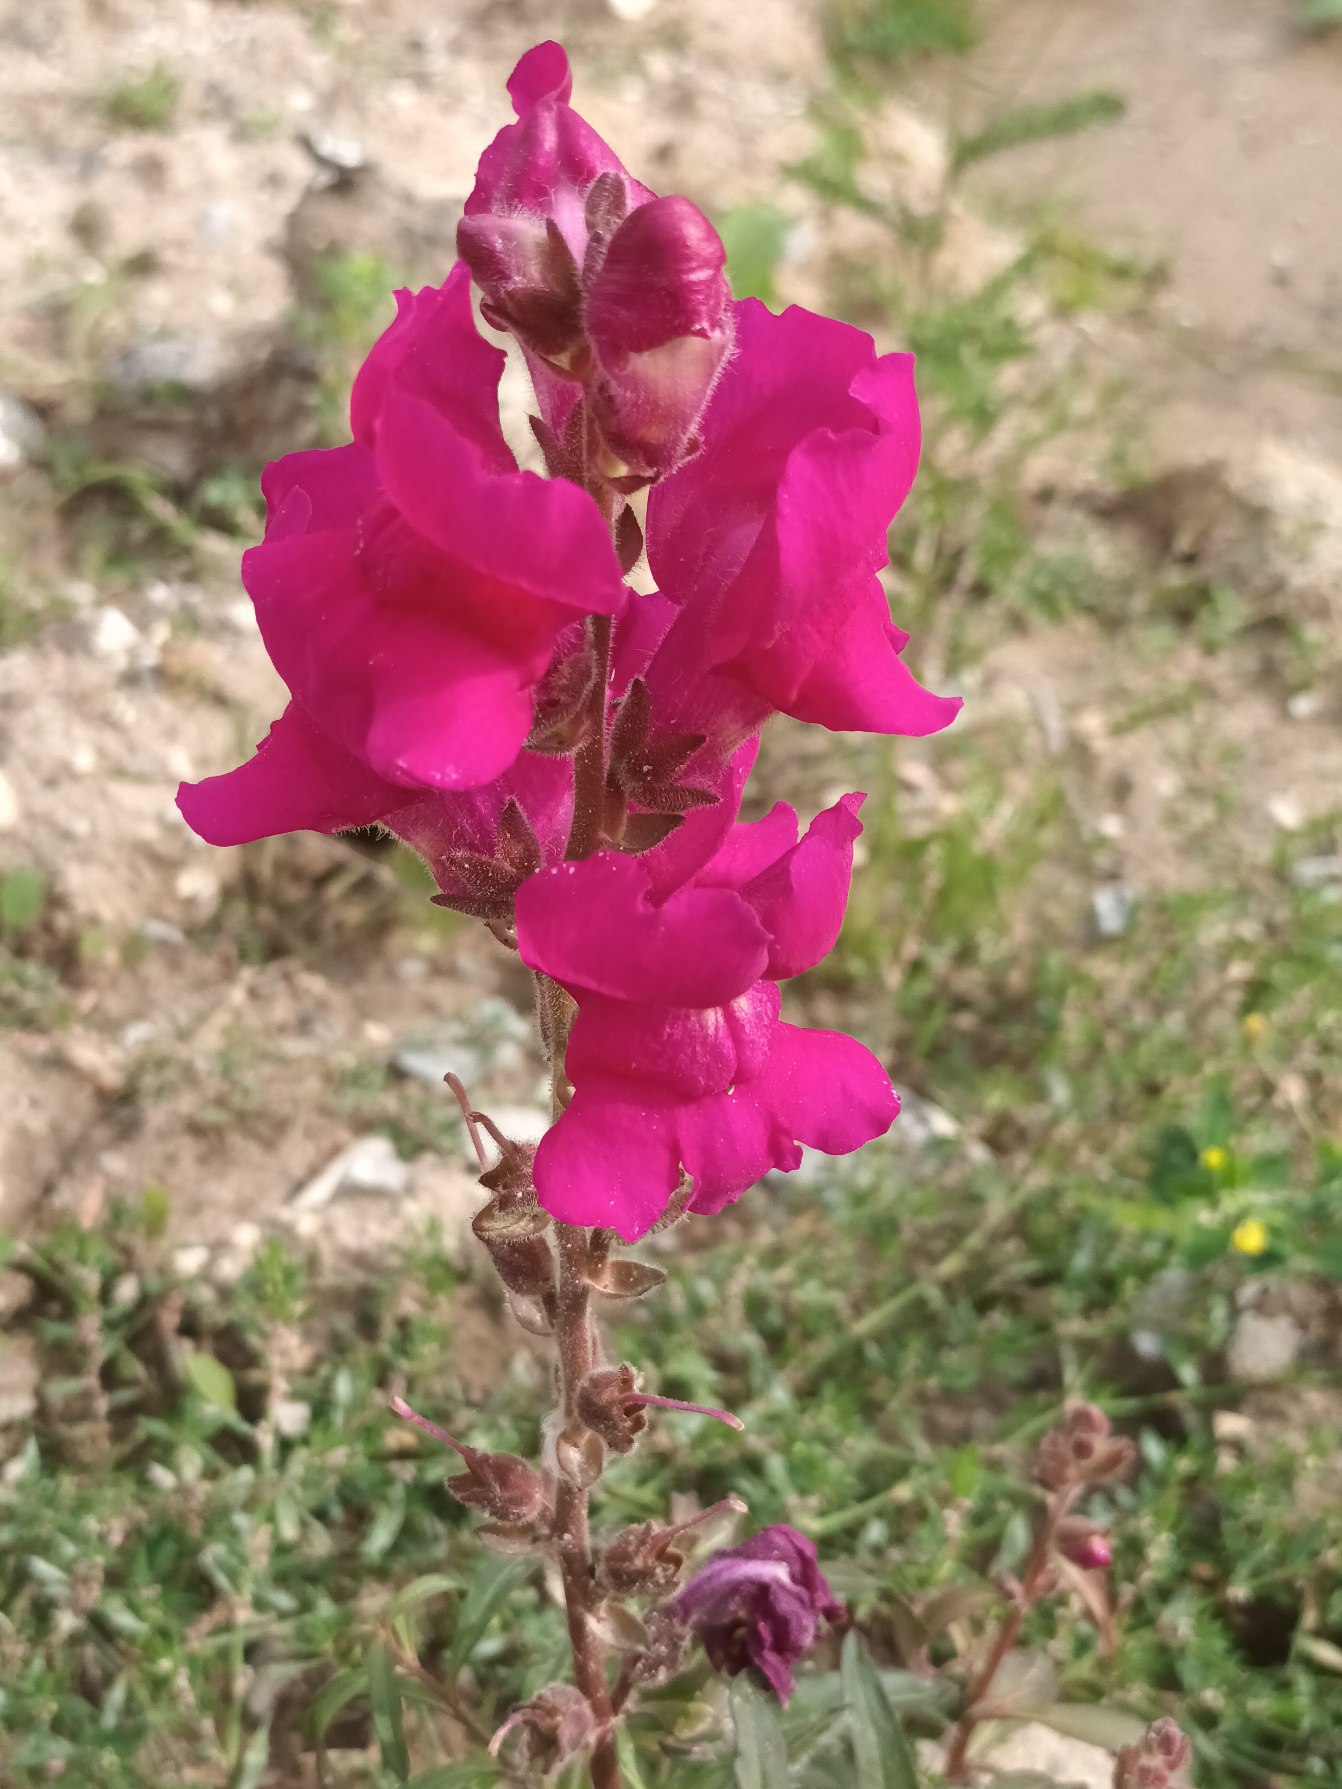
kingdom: Plantae
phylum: Tracheophyta
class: Magnoliopsida
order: Lamiales
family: Plantaginaceae
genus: Antirrhinum
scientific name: Antirrhinum majus
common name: Have-løvemund
